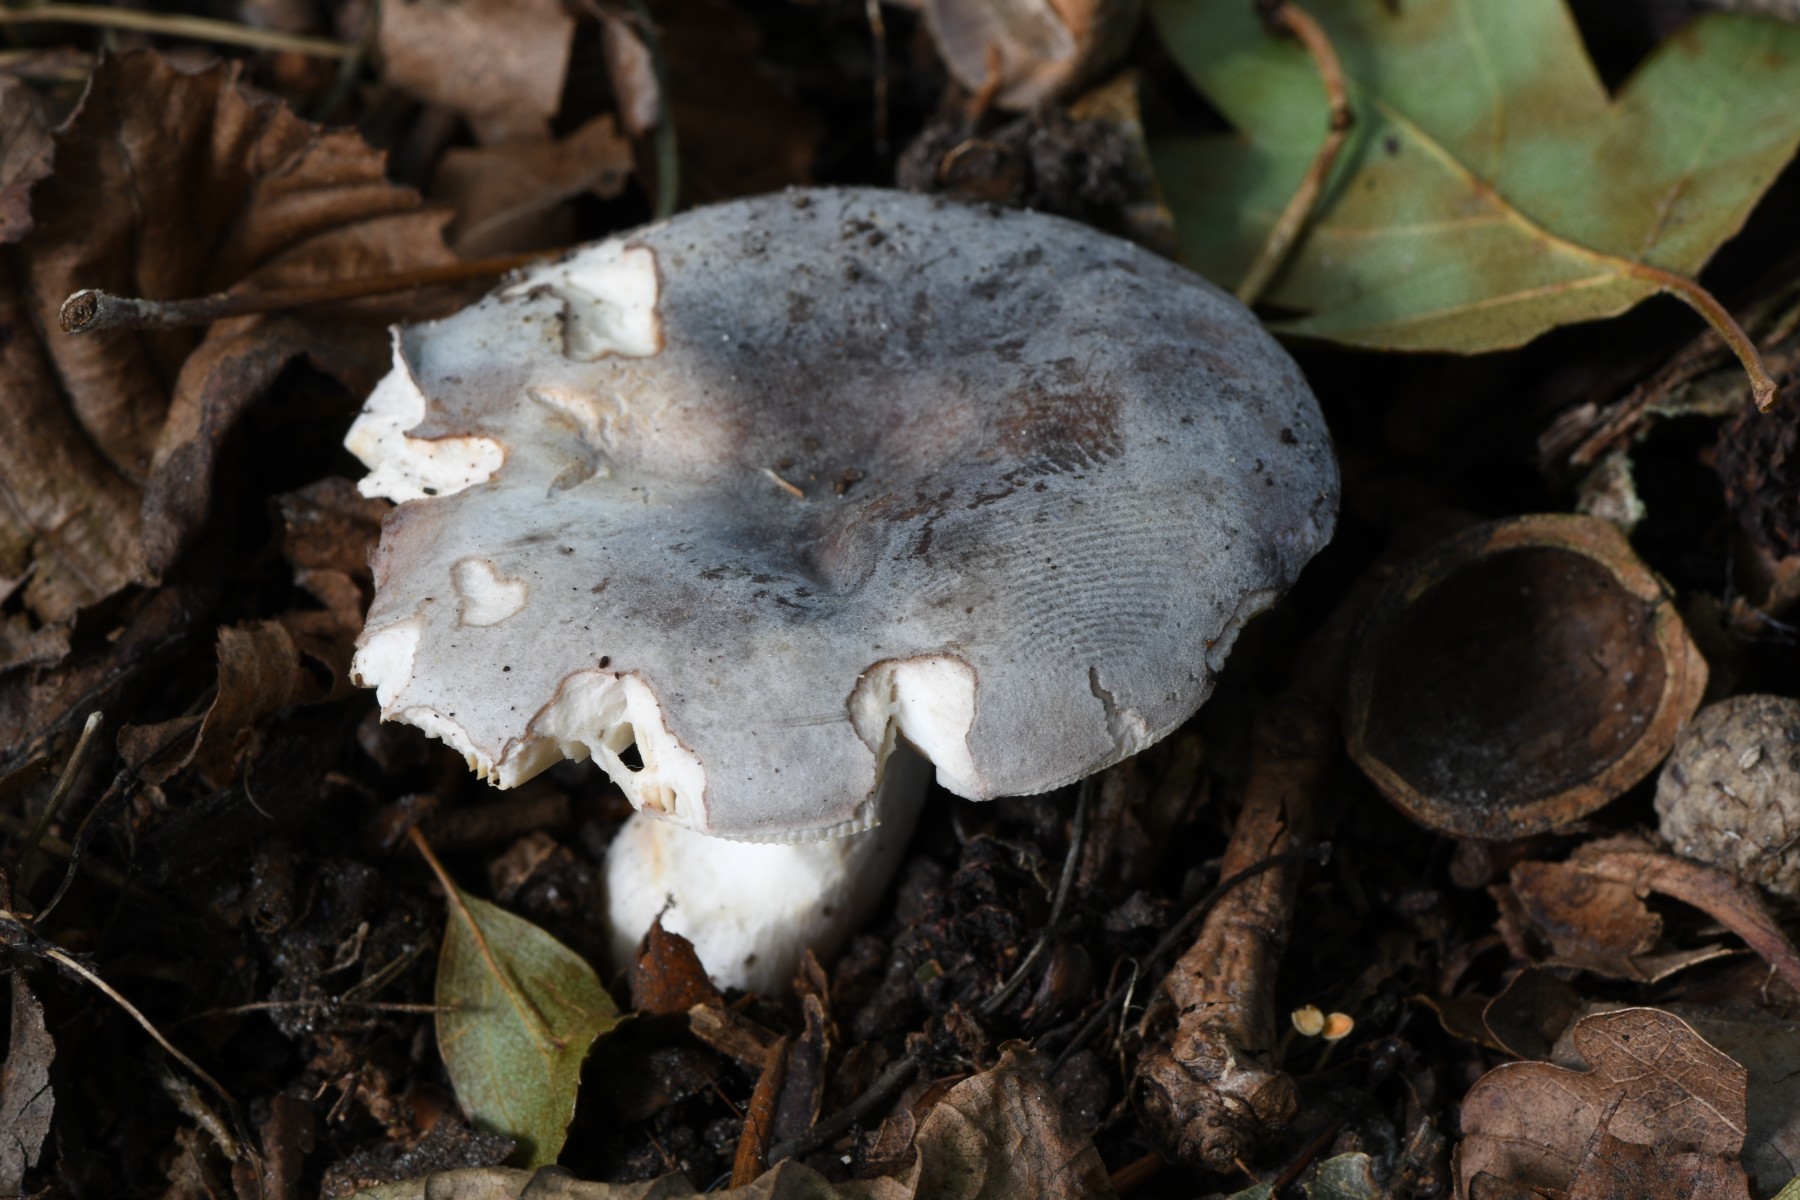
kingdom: Fungi
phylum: Basidiomycota
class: Agaricomycetes
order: Russulales
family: Russulaceae
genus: Russula
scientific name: Russula parazurea
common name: blågrå skørhat
